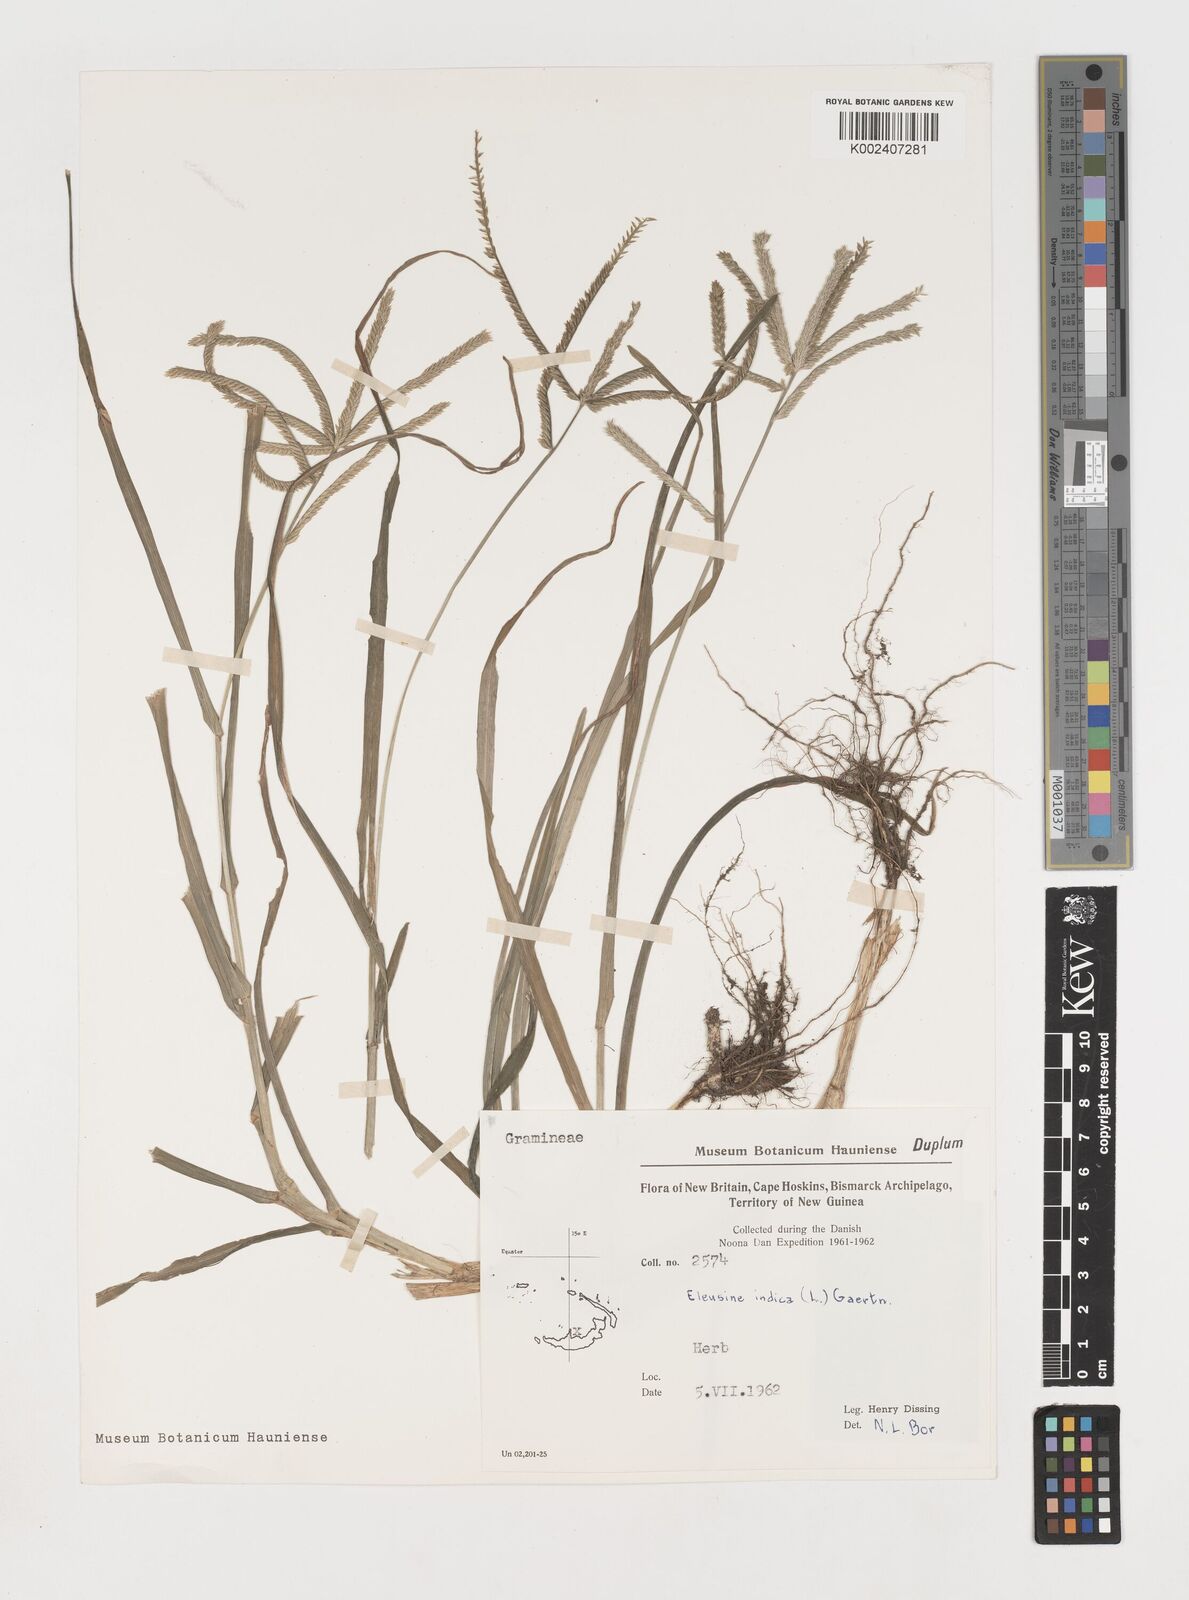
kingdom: Plantae
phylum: Tracheophyta
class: Liliopsida
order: Poales
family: Poaceae
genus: Eleusine
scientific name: Eleusine indica
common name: Yard-grass
